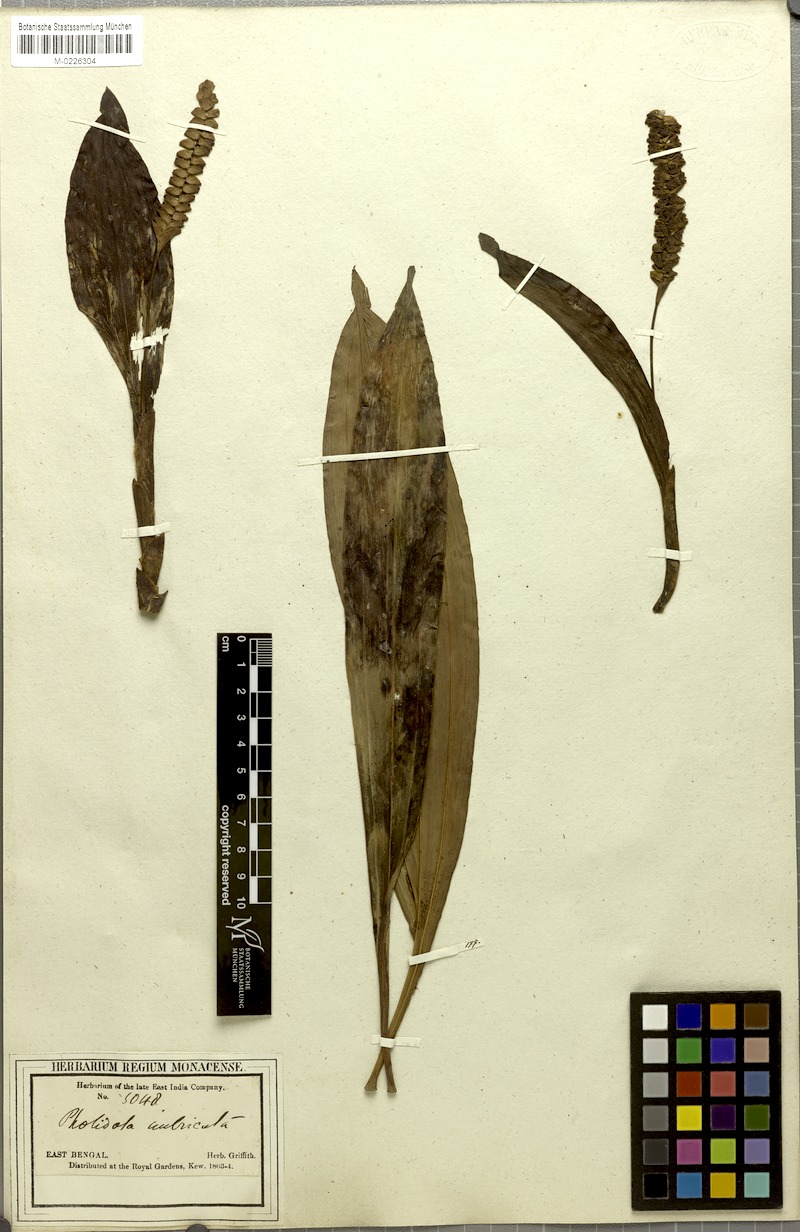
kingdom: Plantae
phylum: Tracheophyta
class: Liliopsida
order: Asparagales
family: Orchidaceae
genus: Pholidota
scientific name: Pholidota imbricata
